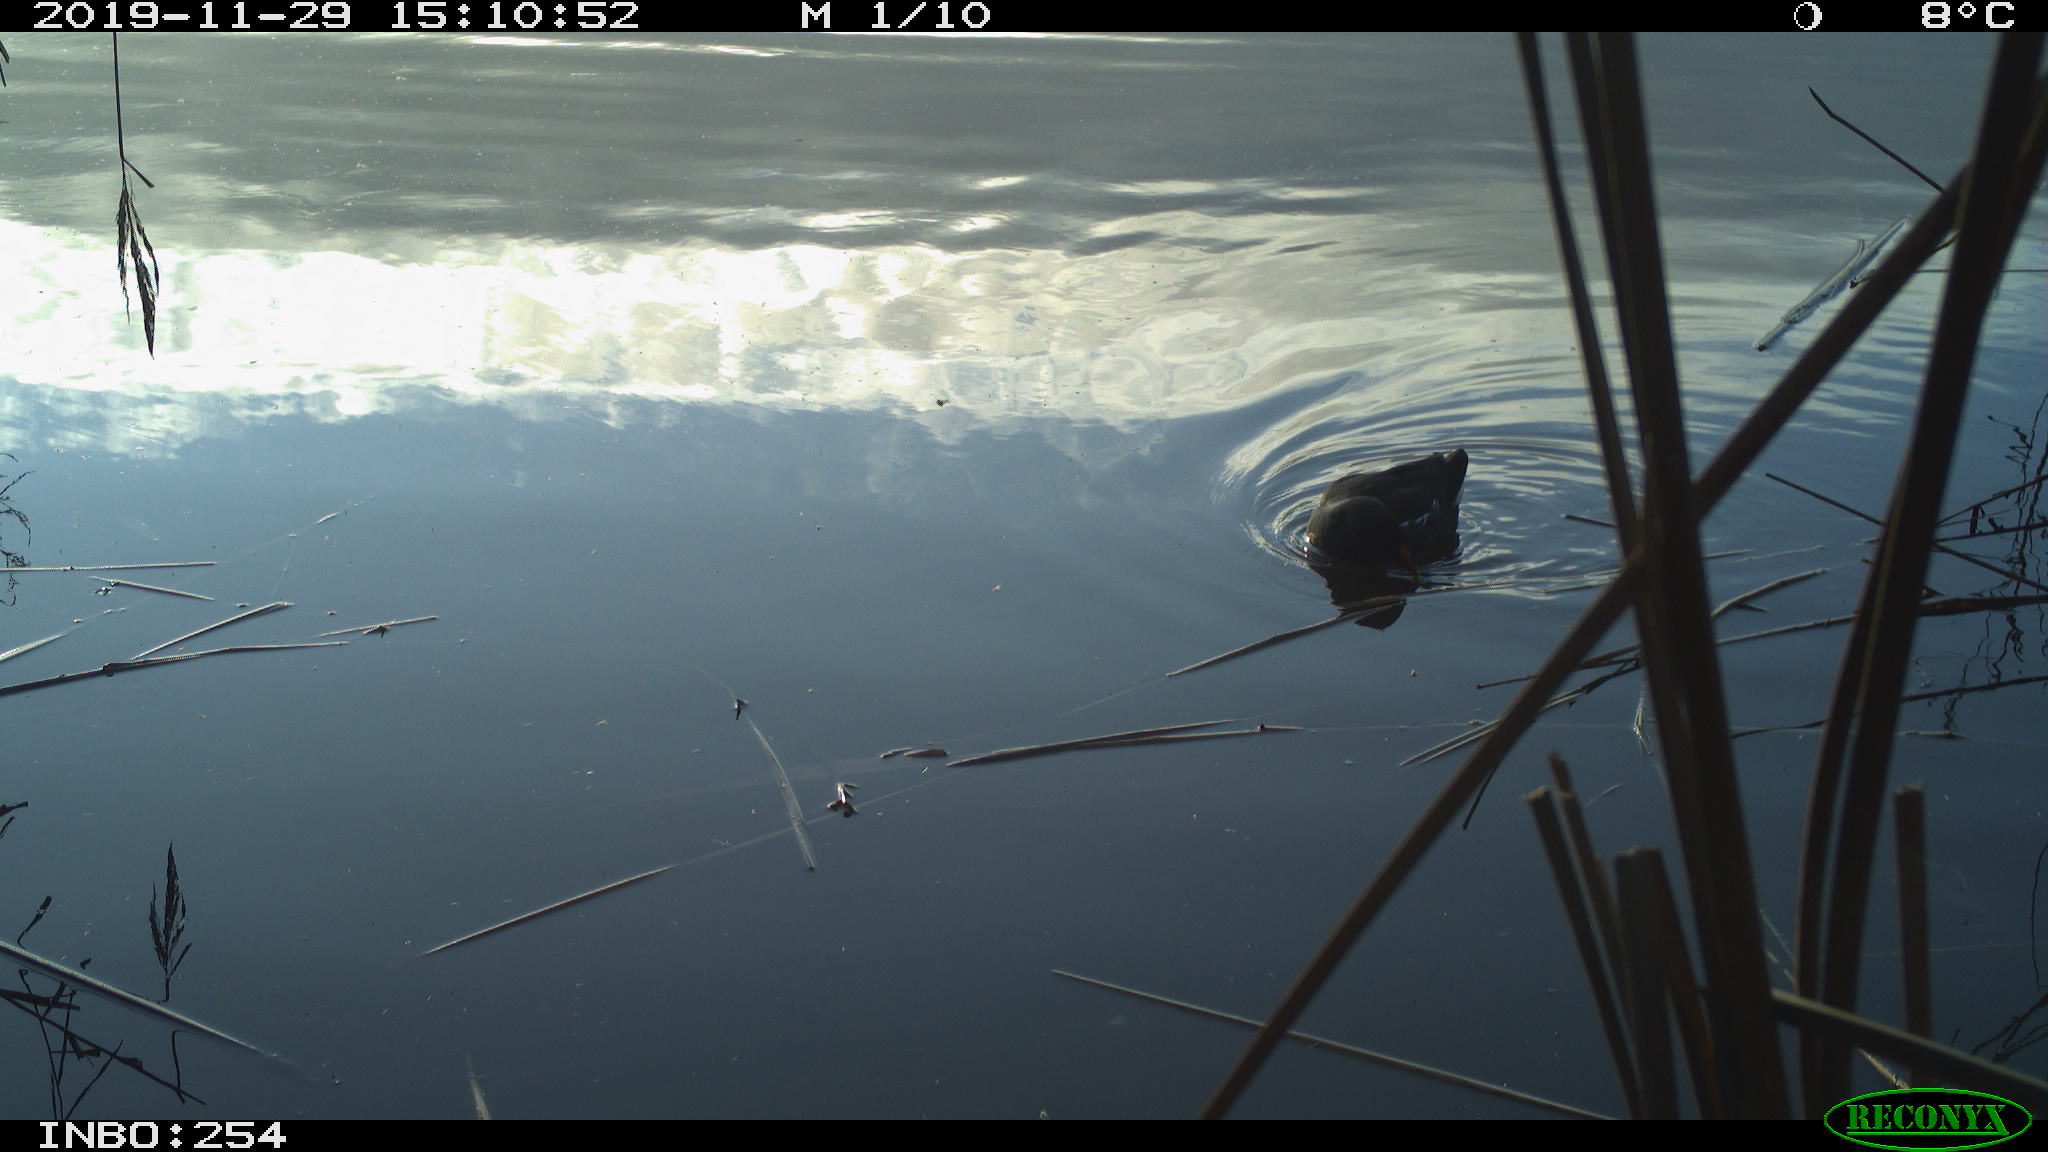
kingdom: Animalia
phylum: Chordata
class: Aves
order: Gruiformes
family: Rallidae
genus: Gallinula
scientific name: Gallinula chloropus
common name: Common moorhen
